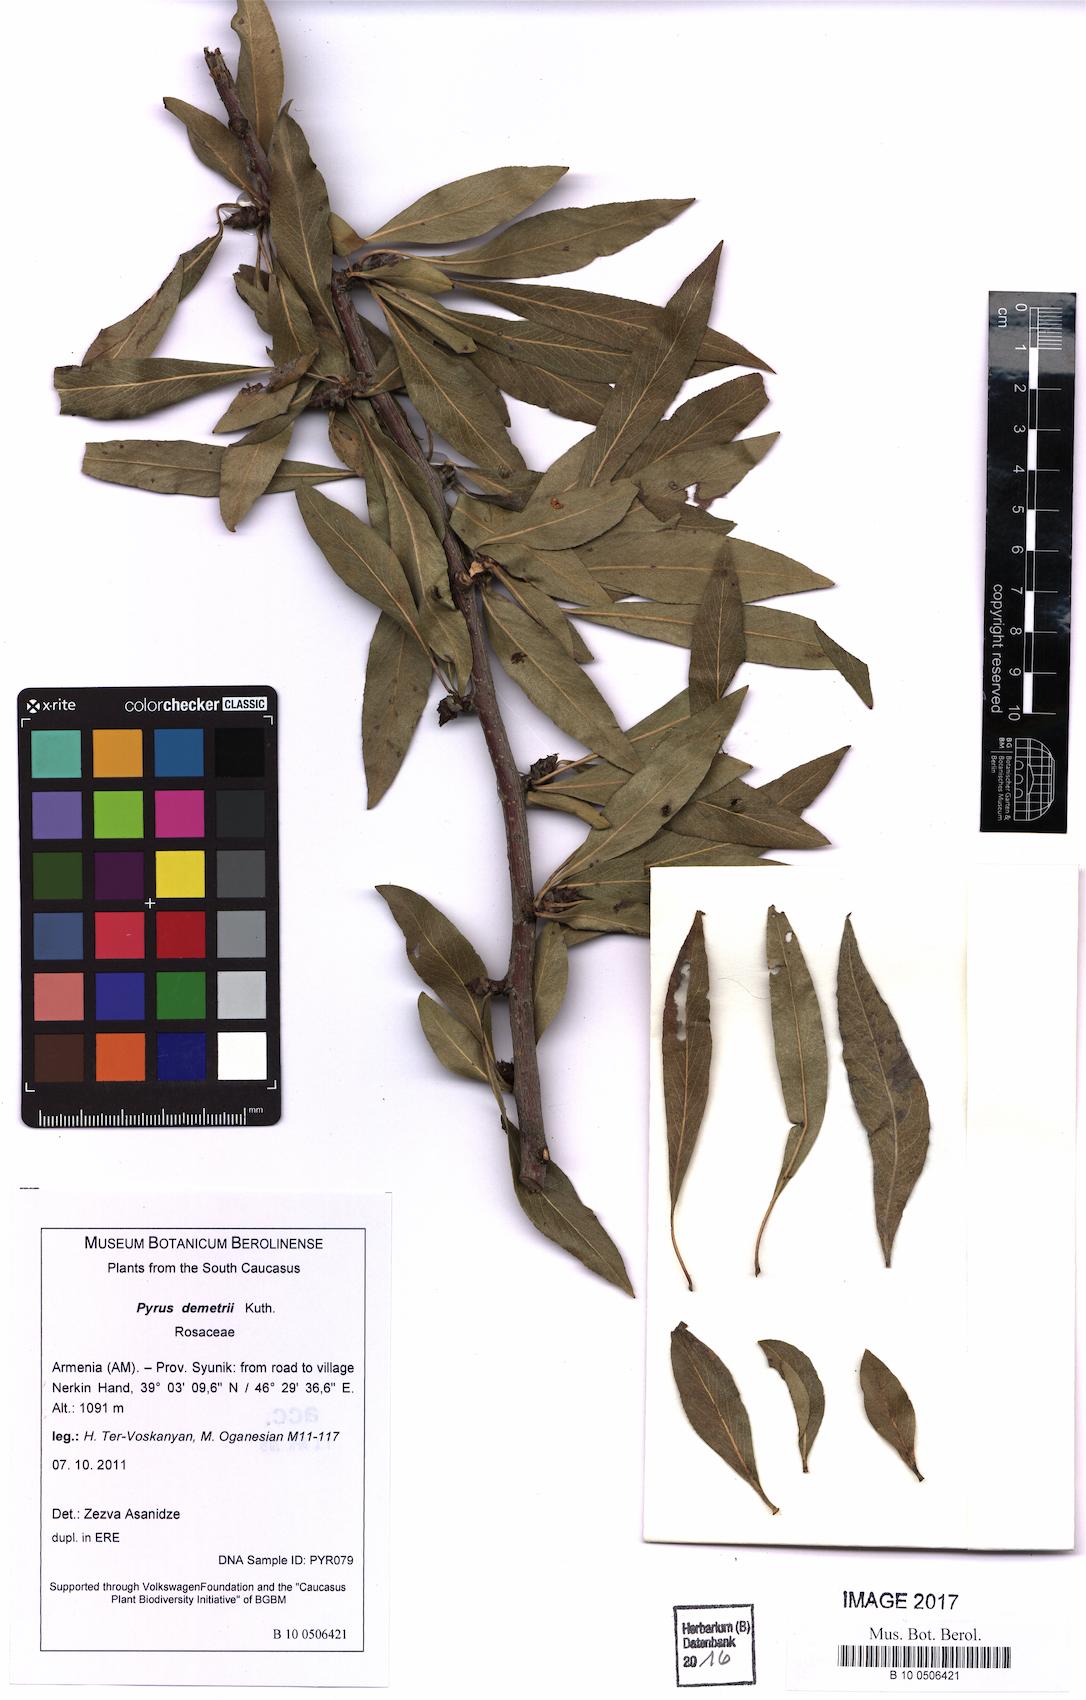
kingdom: Plantae
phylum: Tracheophyta
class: Magnoliopsida
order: Rosales
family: Rosaceae
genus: Pyrus
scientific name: Pyrus demetrii
